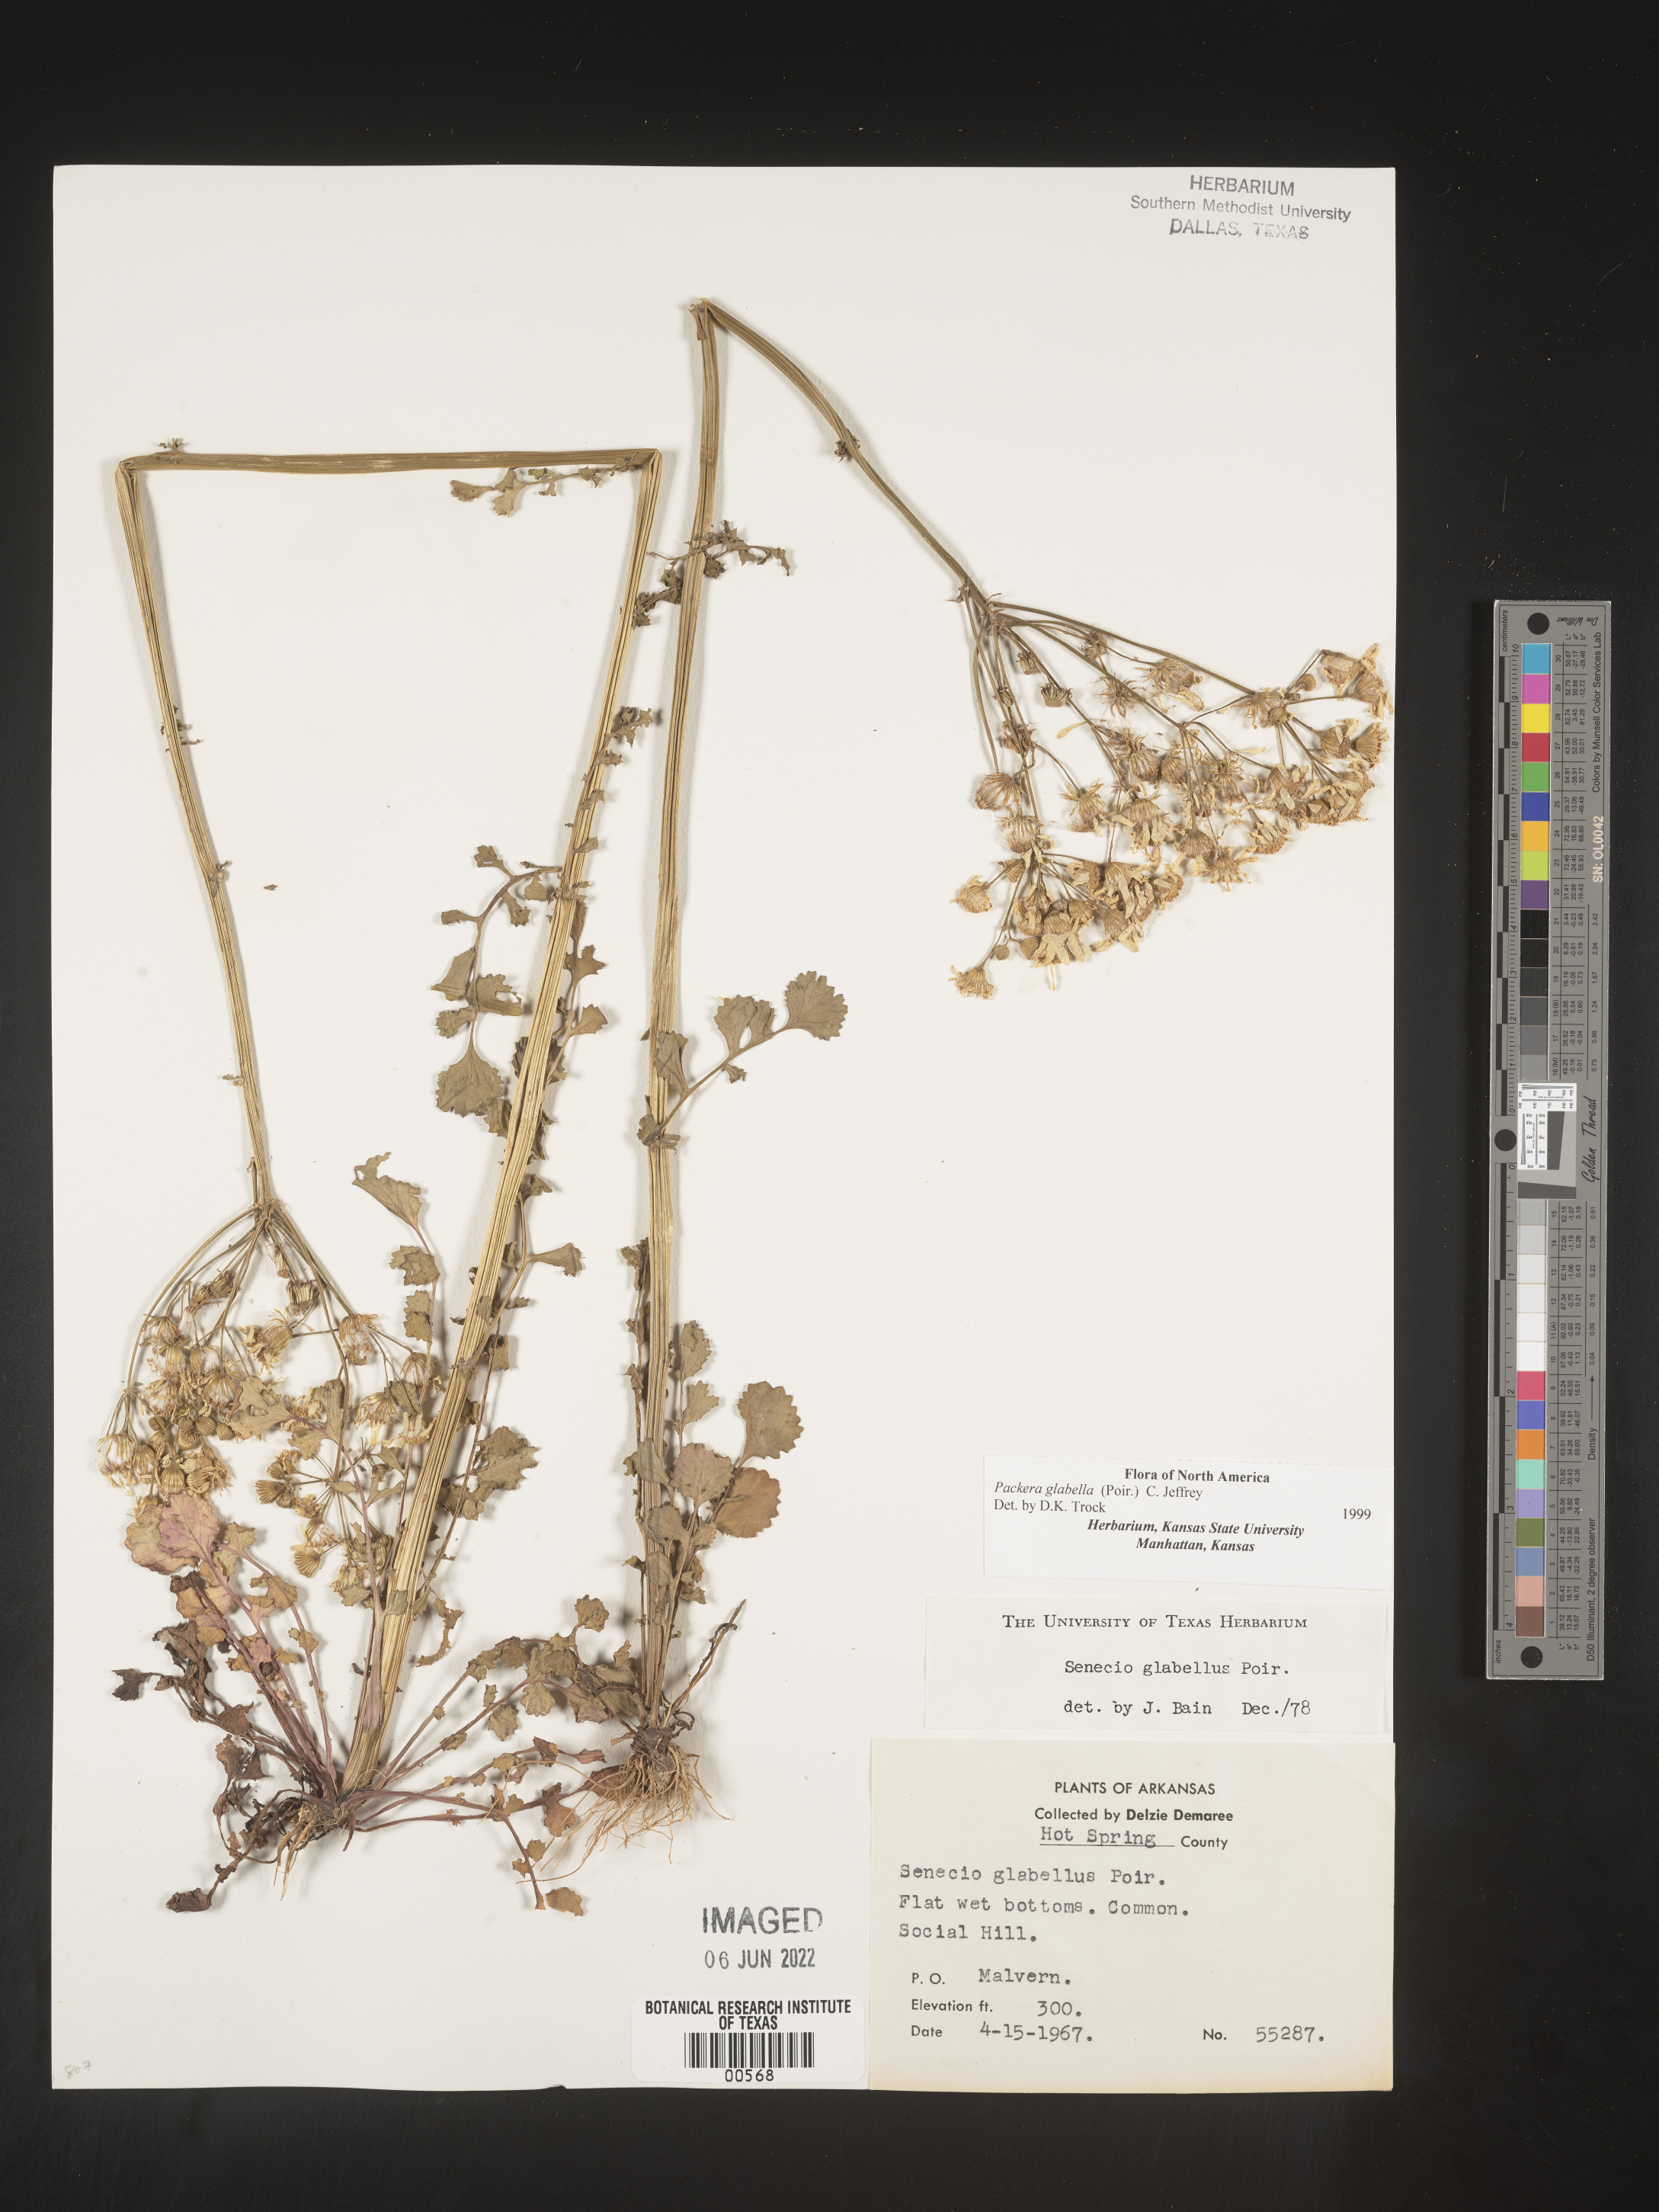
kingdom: Plantae
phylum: Tracheophyta
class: Magnoliopsida
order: Asterales
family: Asteraceae
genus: Packera
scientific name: Packera glabella
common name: Butterweed
